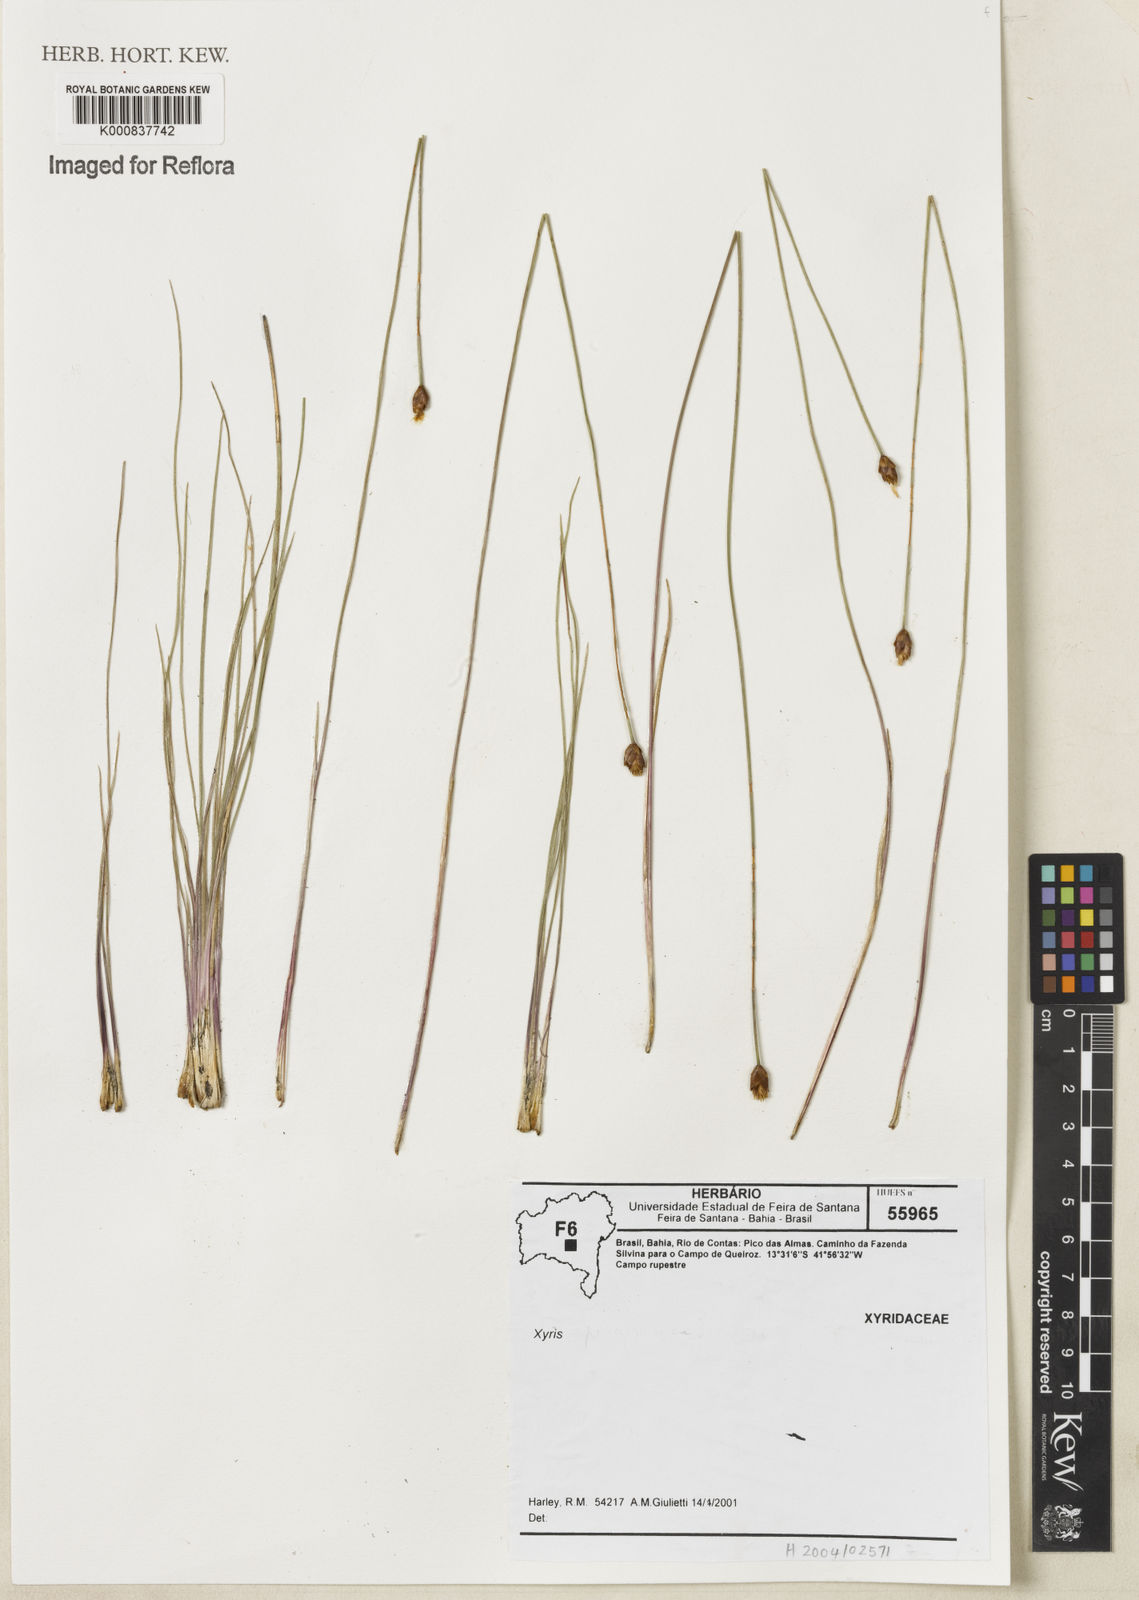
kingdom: Plantae
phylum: Tracheophyta
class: Liliopsida
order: Poales
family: Xyridaceae
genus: Xyris
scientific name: Xyris
